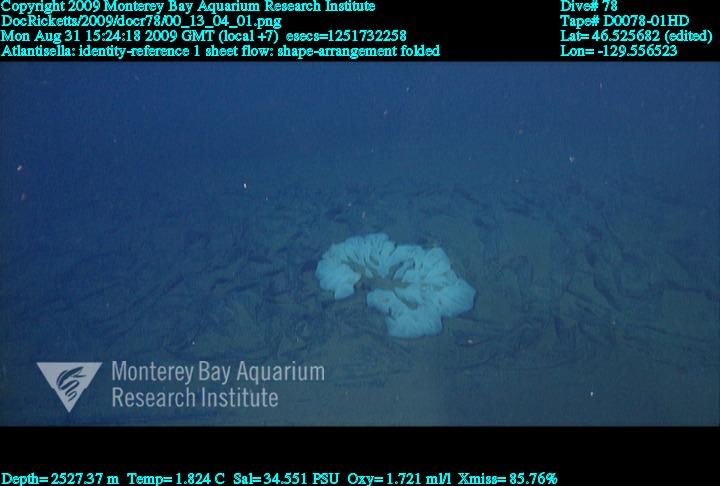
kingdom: Animalia
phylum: Porifera
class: Hexactinellida
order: Lyssacinosida
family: Euplectellidae
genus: Atlantisella
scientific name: Atlantisella
